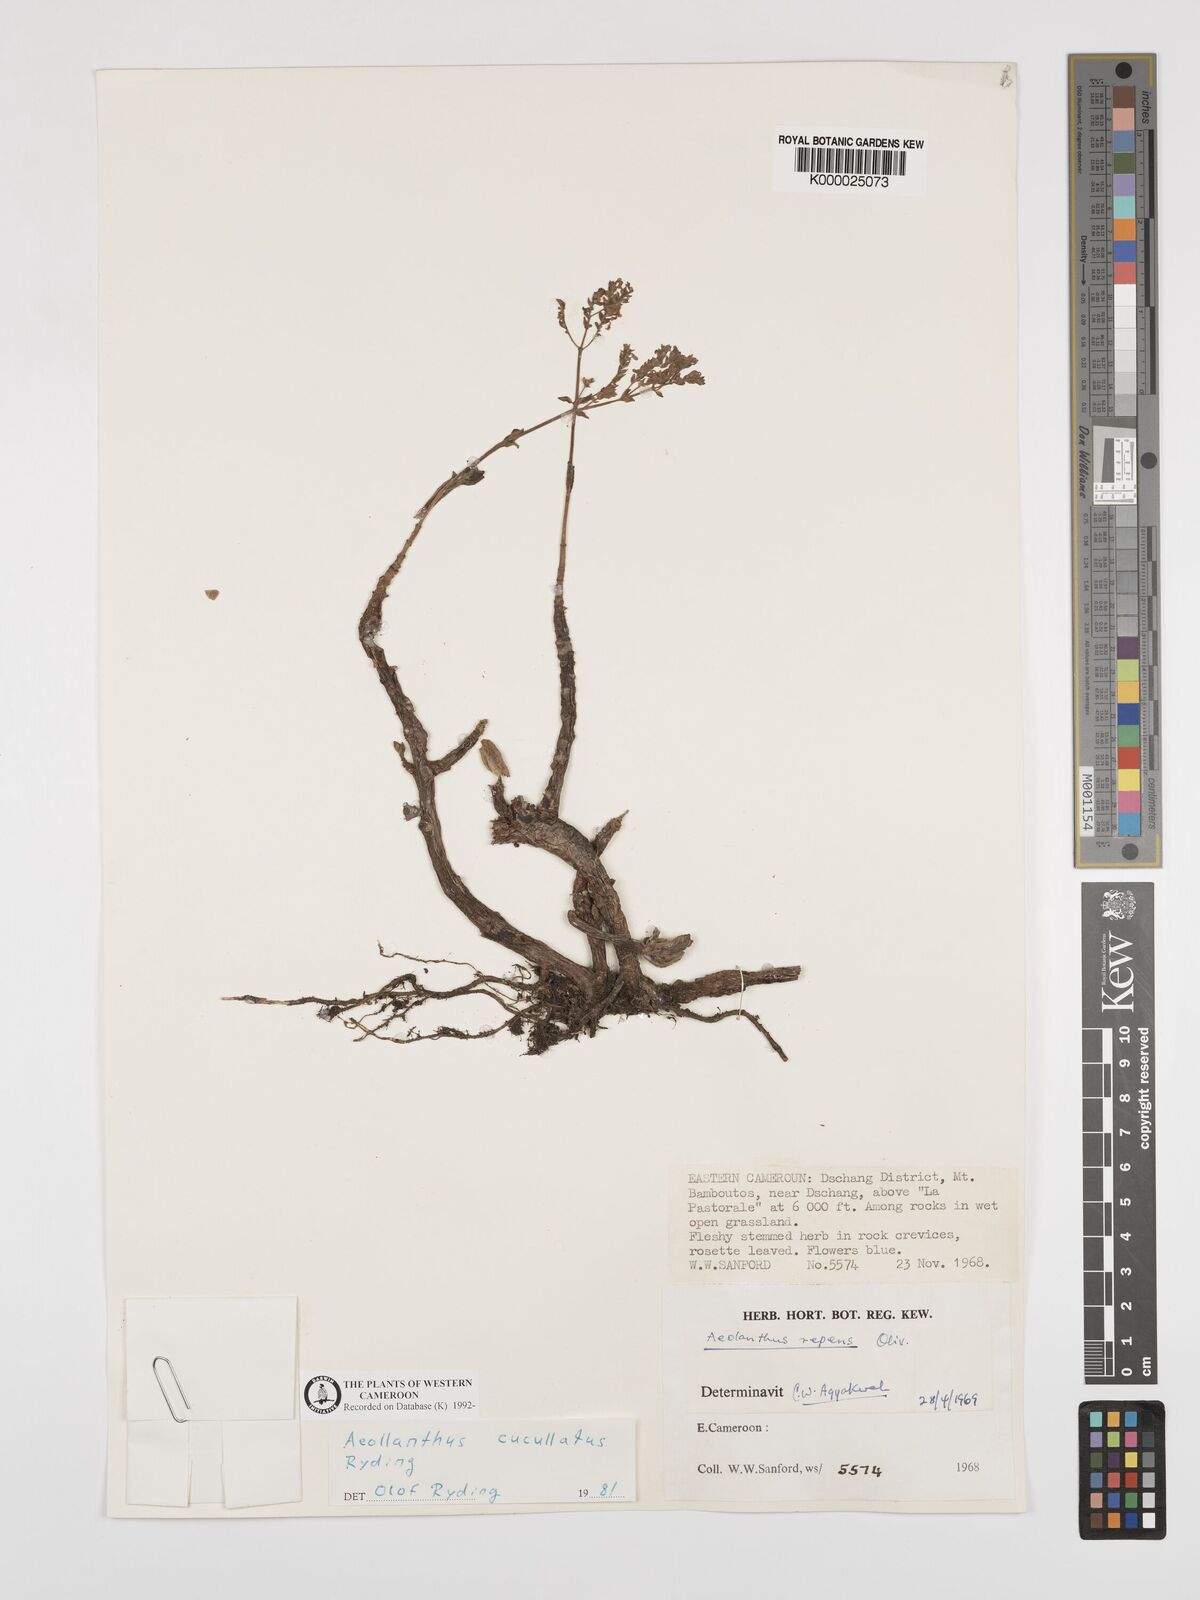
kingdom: Plantae
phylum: Tracheophyta
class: Magnoliopsida
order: Lamiales
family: Lamiaceae
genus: Aeollanthus
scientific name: Aeollanthus cucullatus
